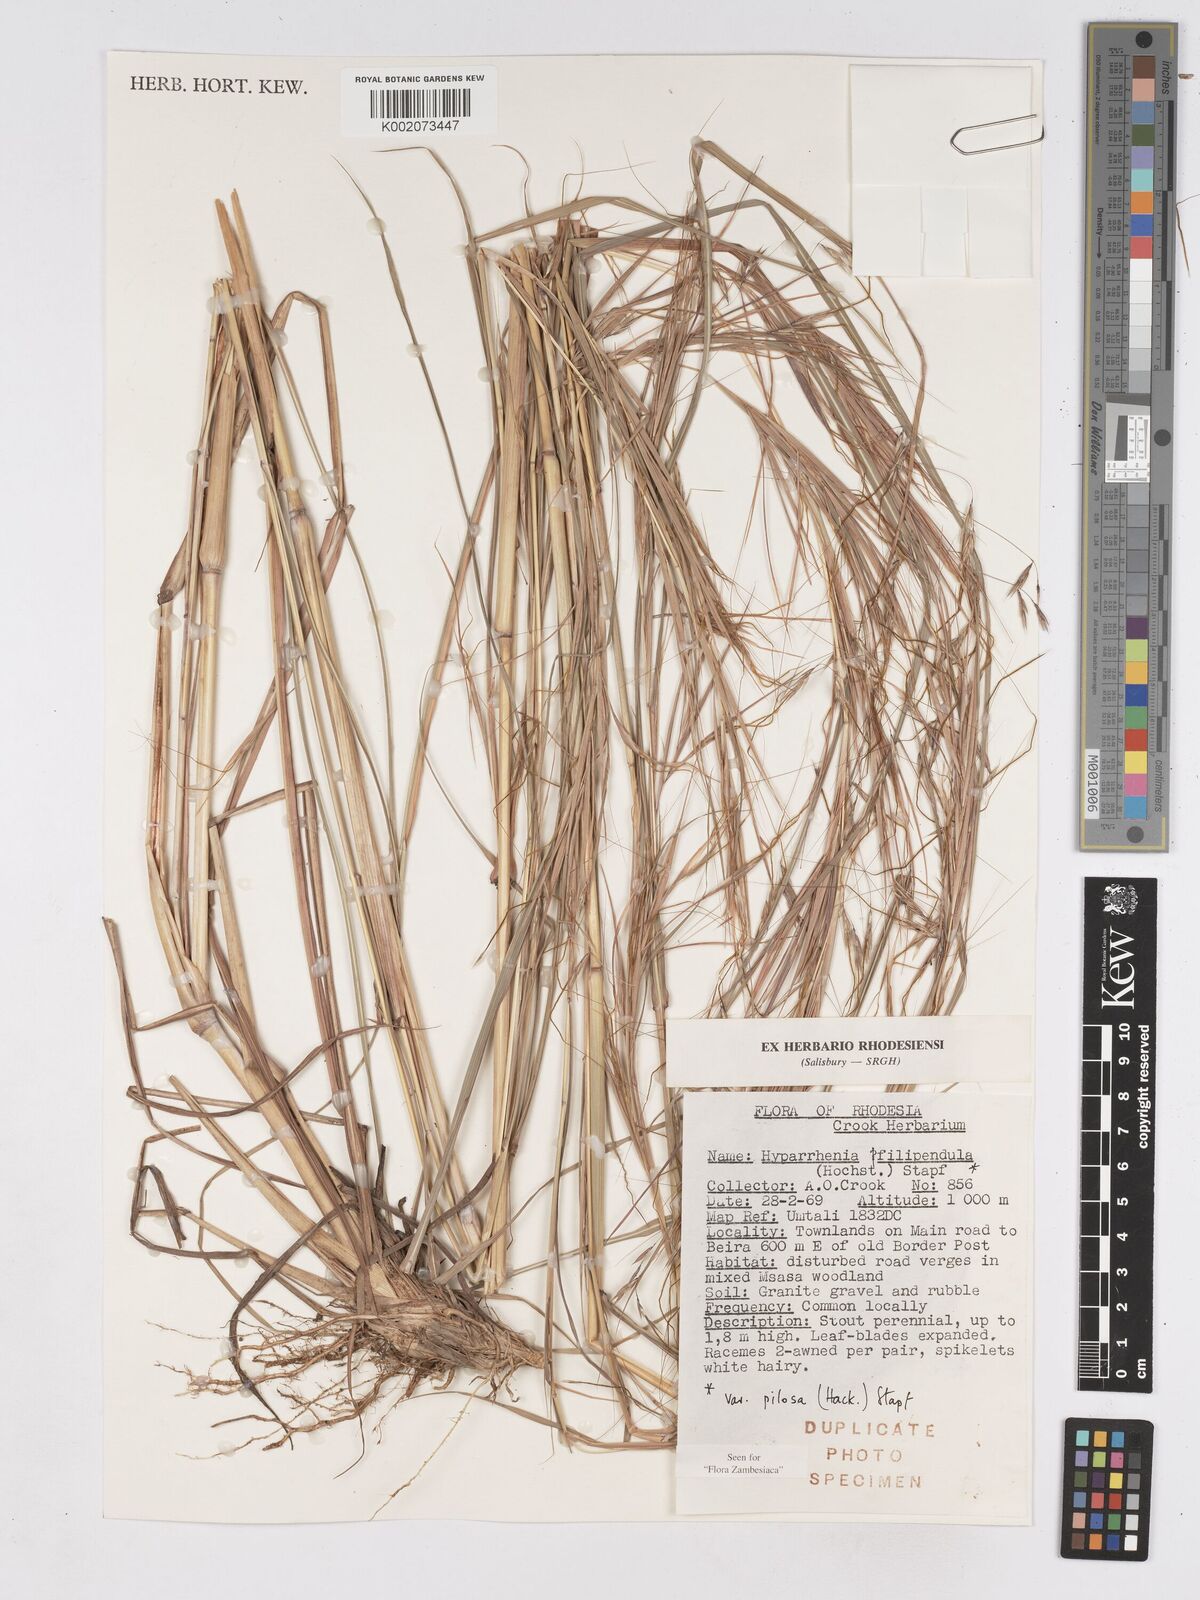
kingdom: Plantae
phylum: Tracheophyta
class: Liliopsida
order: Poales
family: Poaceae
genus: Hyparrhenia
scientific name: Hyparrhenia filipendula
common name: Tambookie grass
